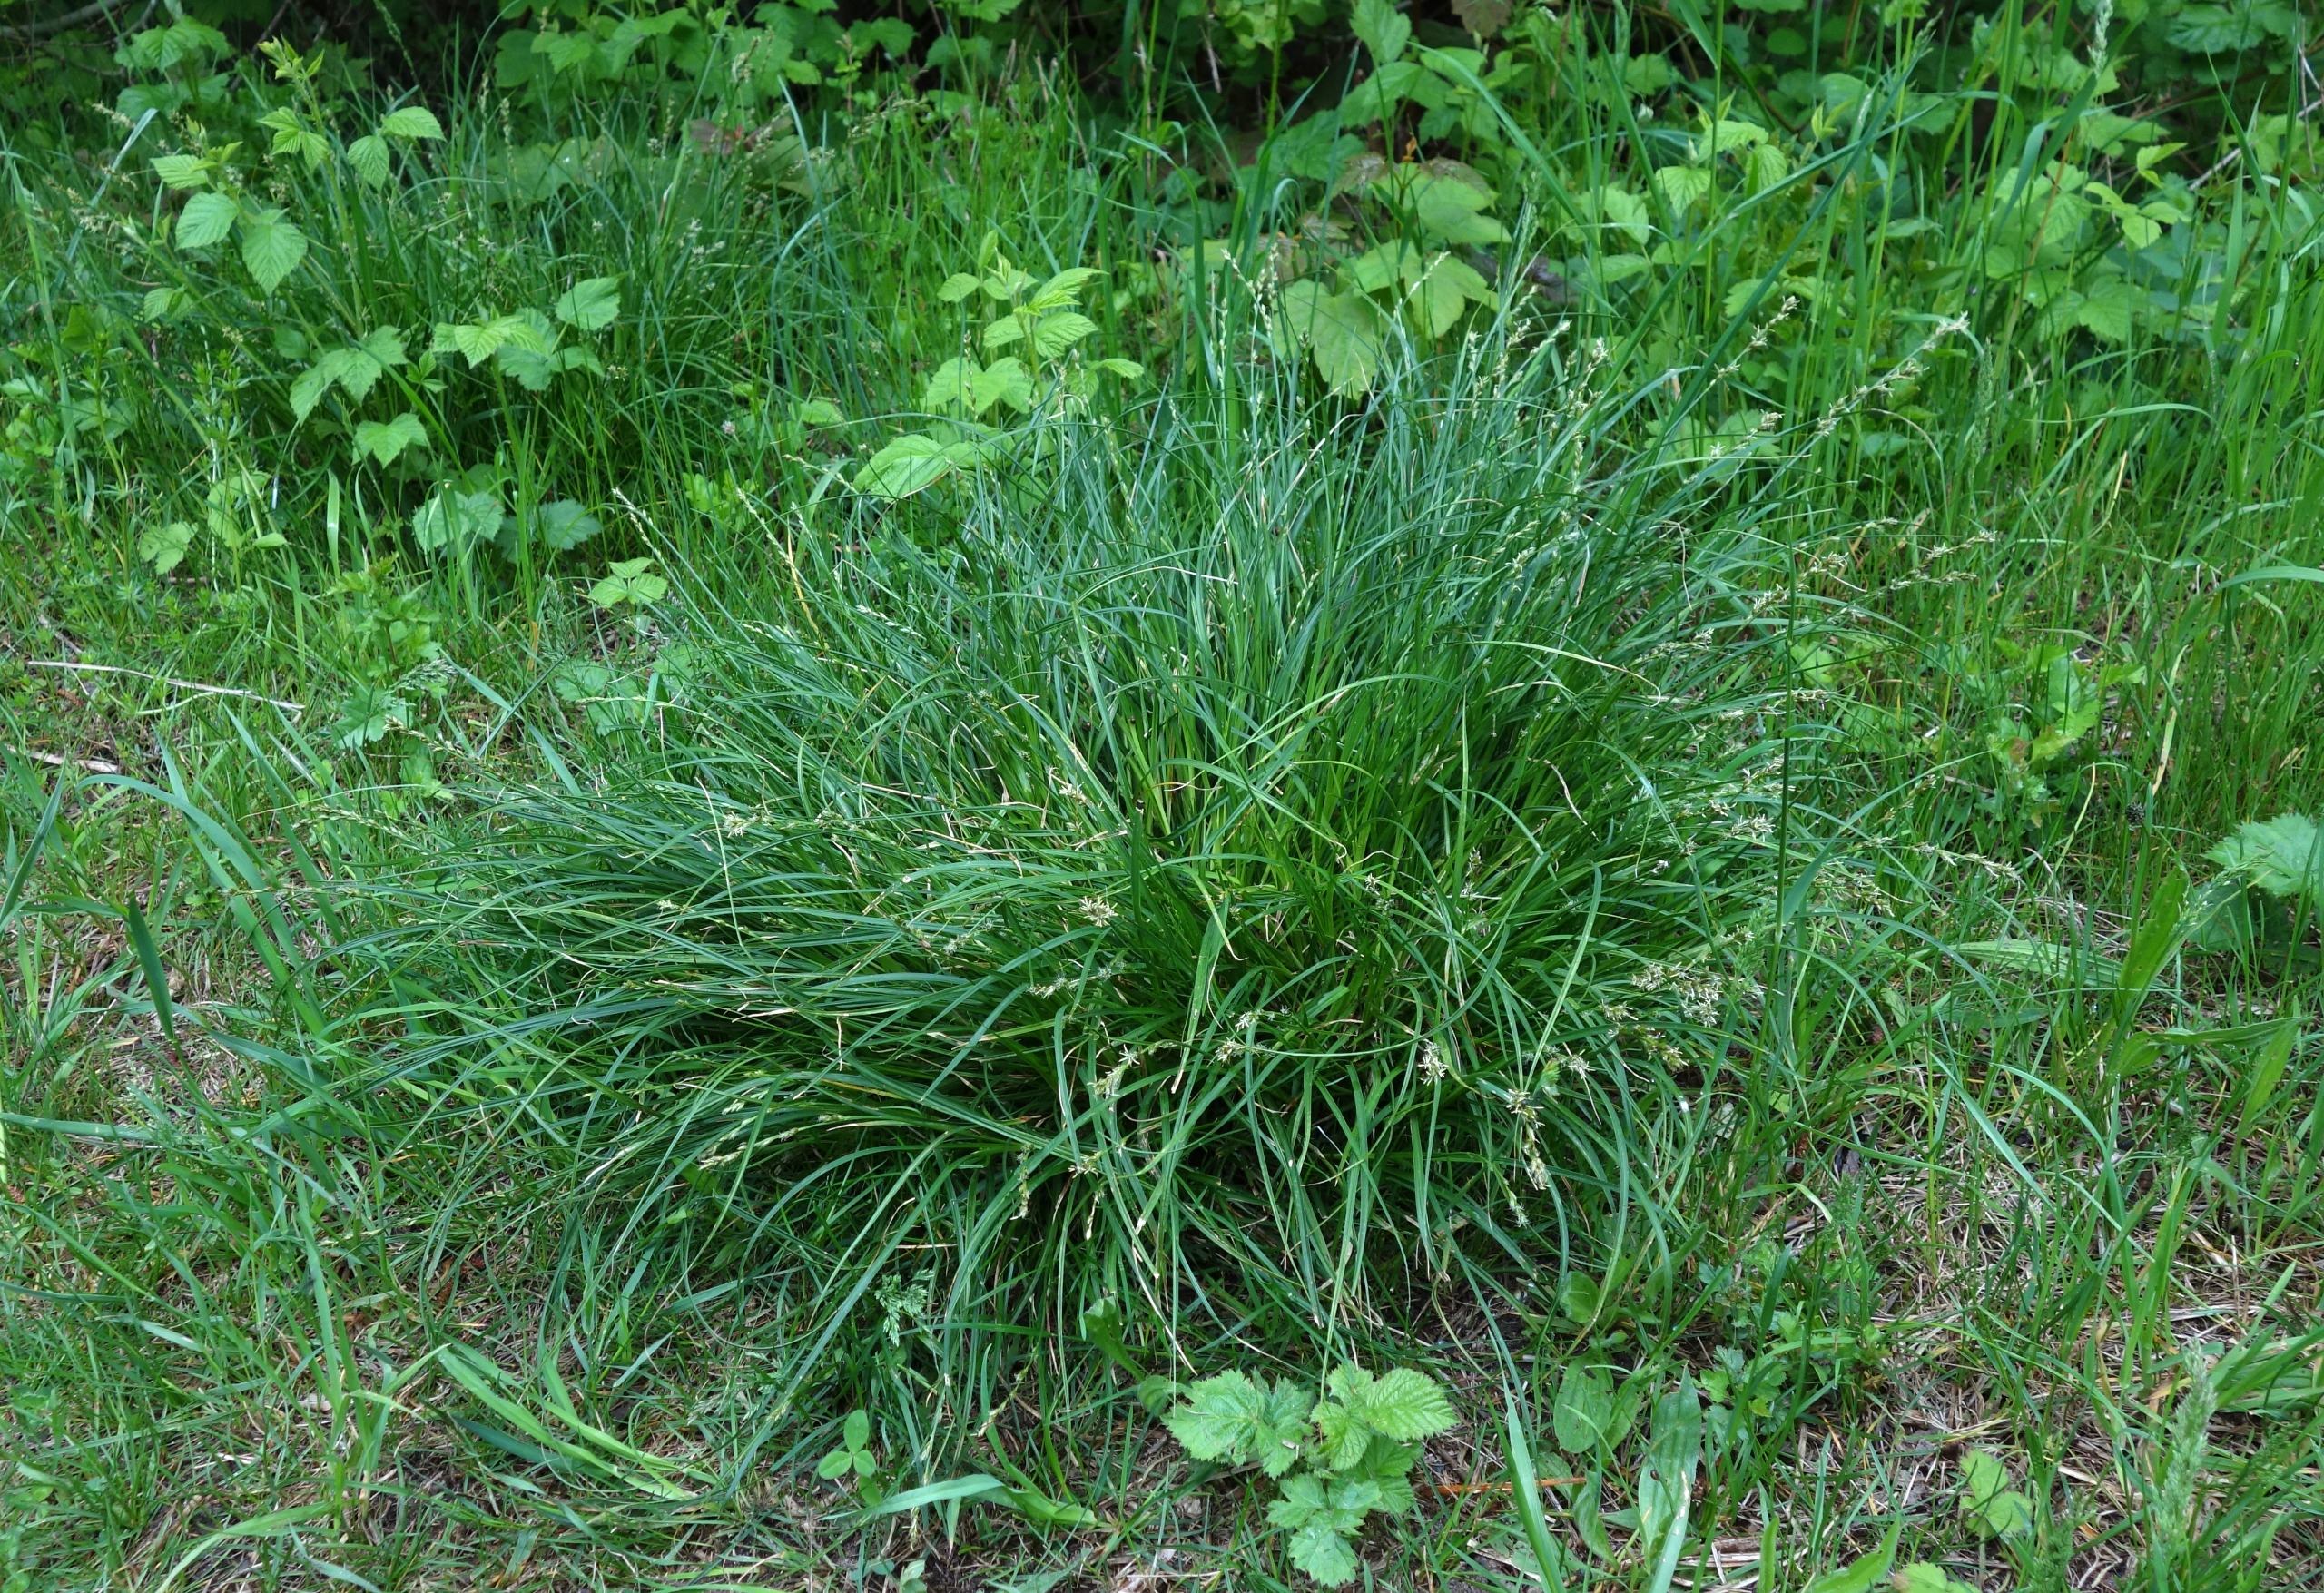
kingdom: Plantae
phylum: Tracheophyta
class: Liliopsida
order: Poales
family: Cyperaceae
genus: Carex
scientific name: Carex divulsa
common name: Mellembrudt star
